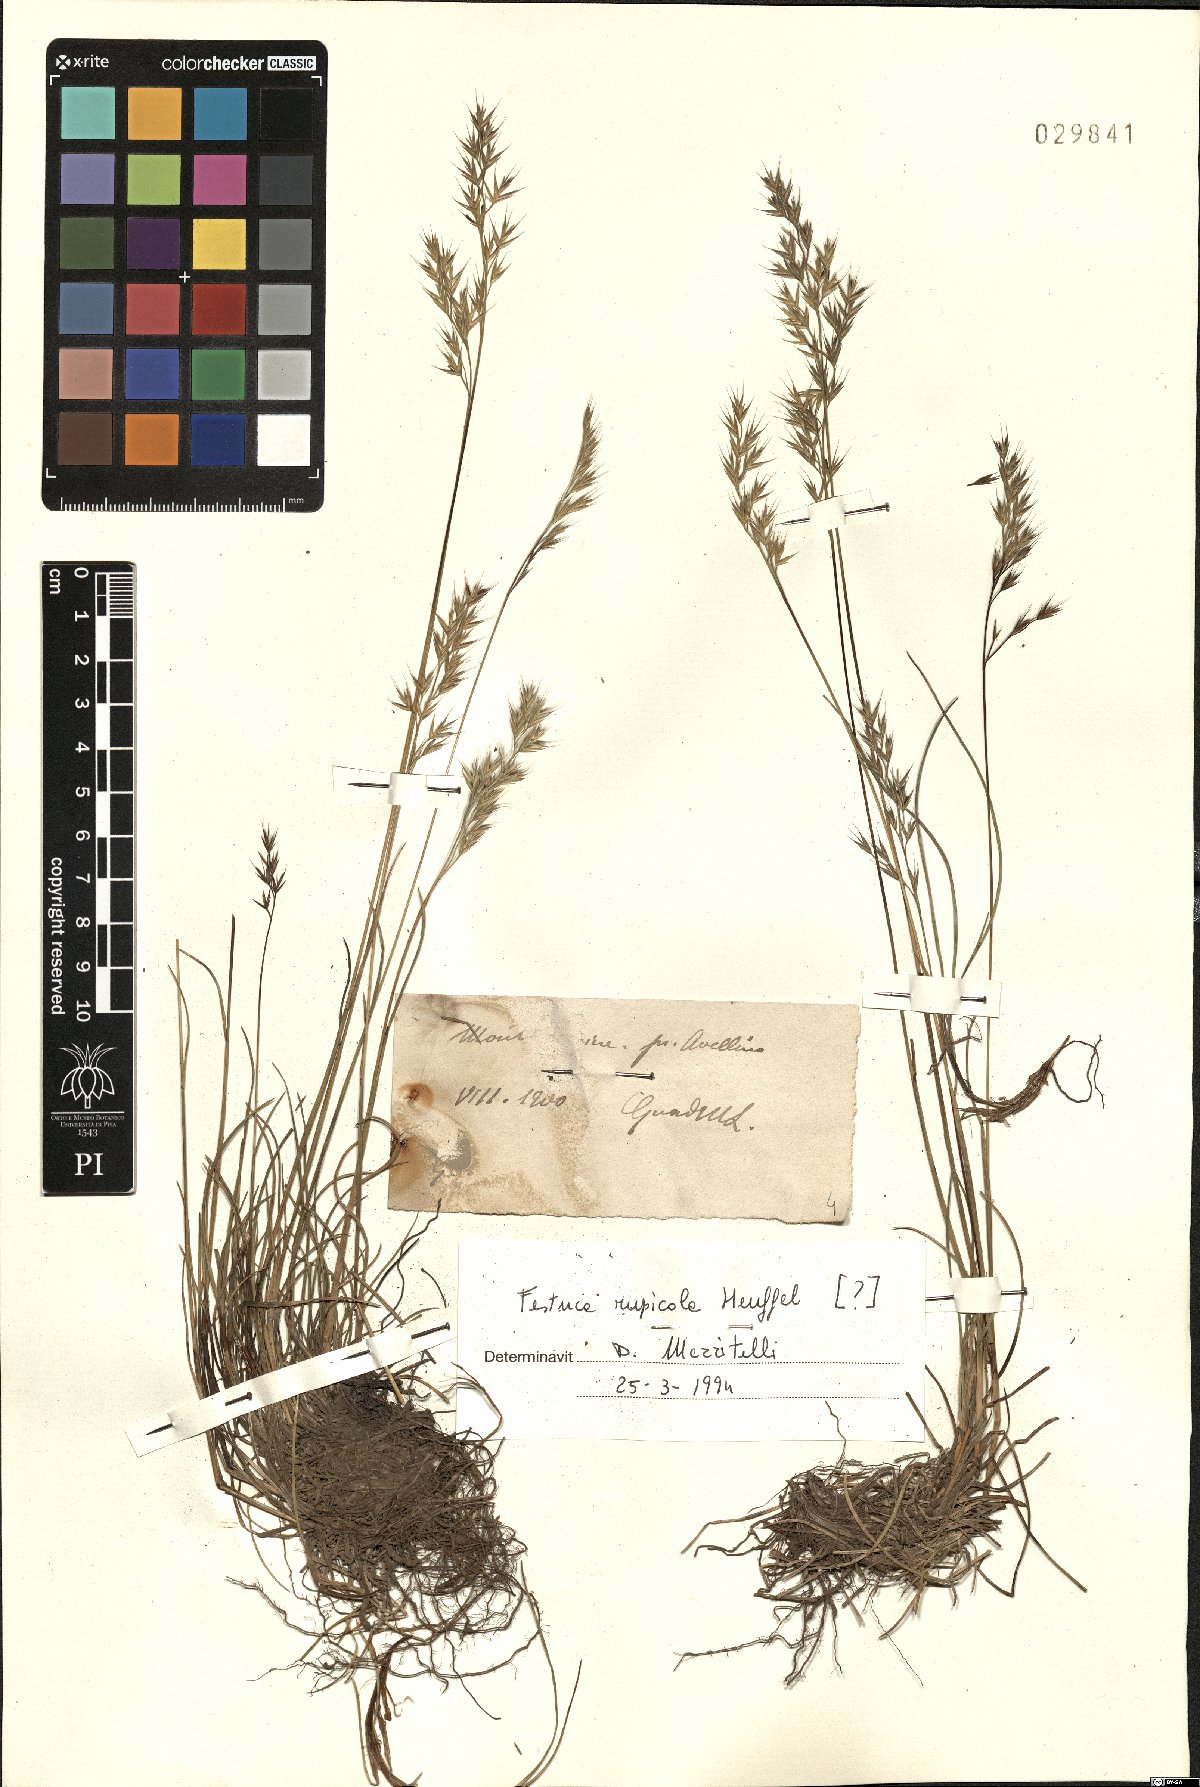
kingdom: Plantae
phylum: Tracheophyta
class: Liliopsida
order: Poales
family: Poaceae
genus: Festuca
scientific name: Festuca rupicola
